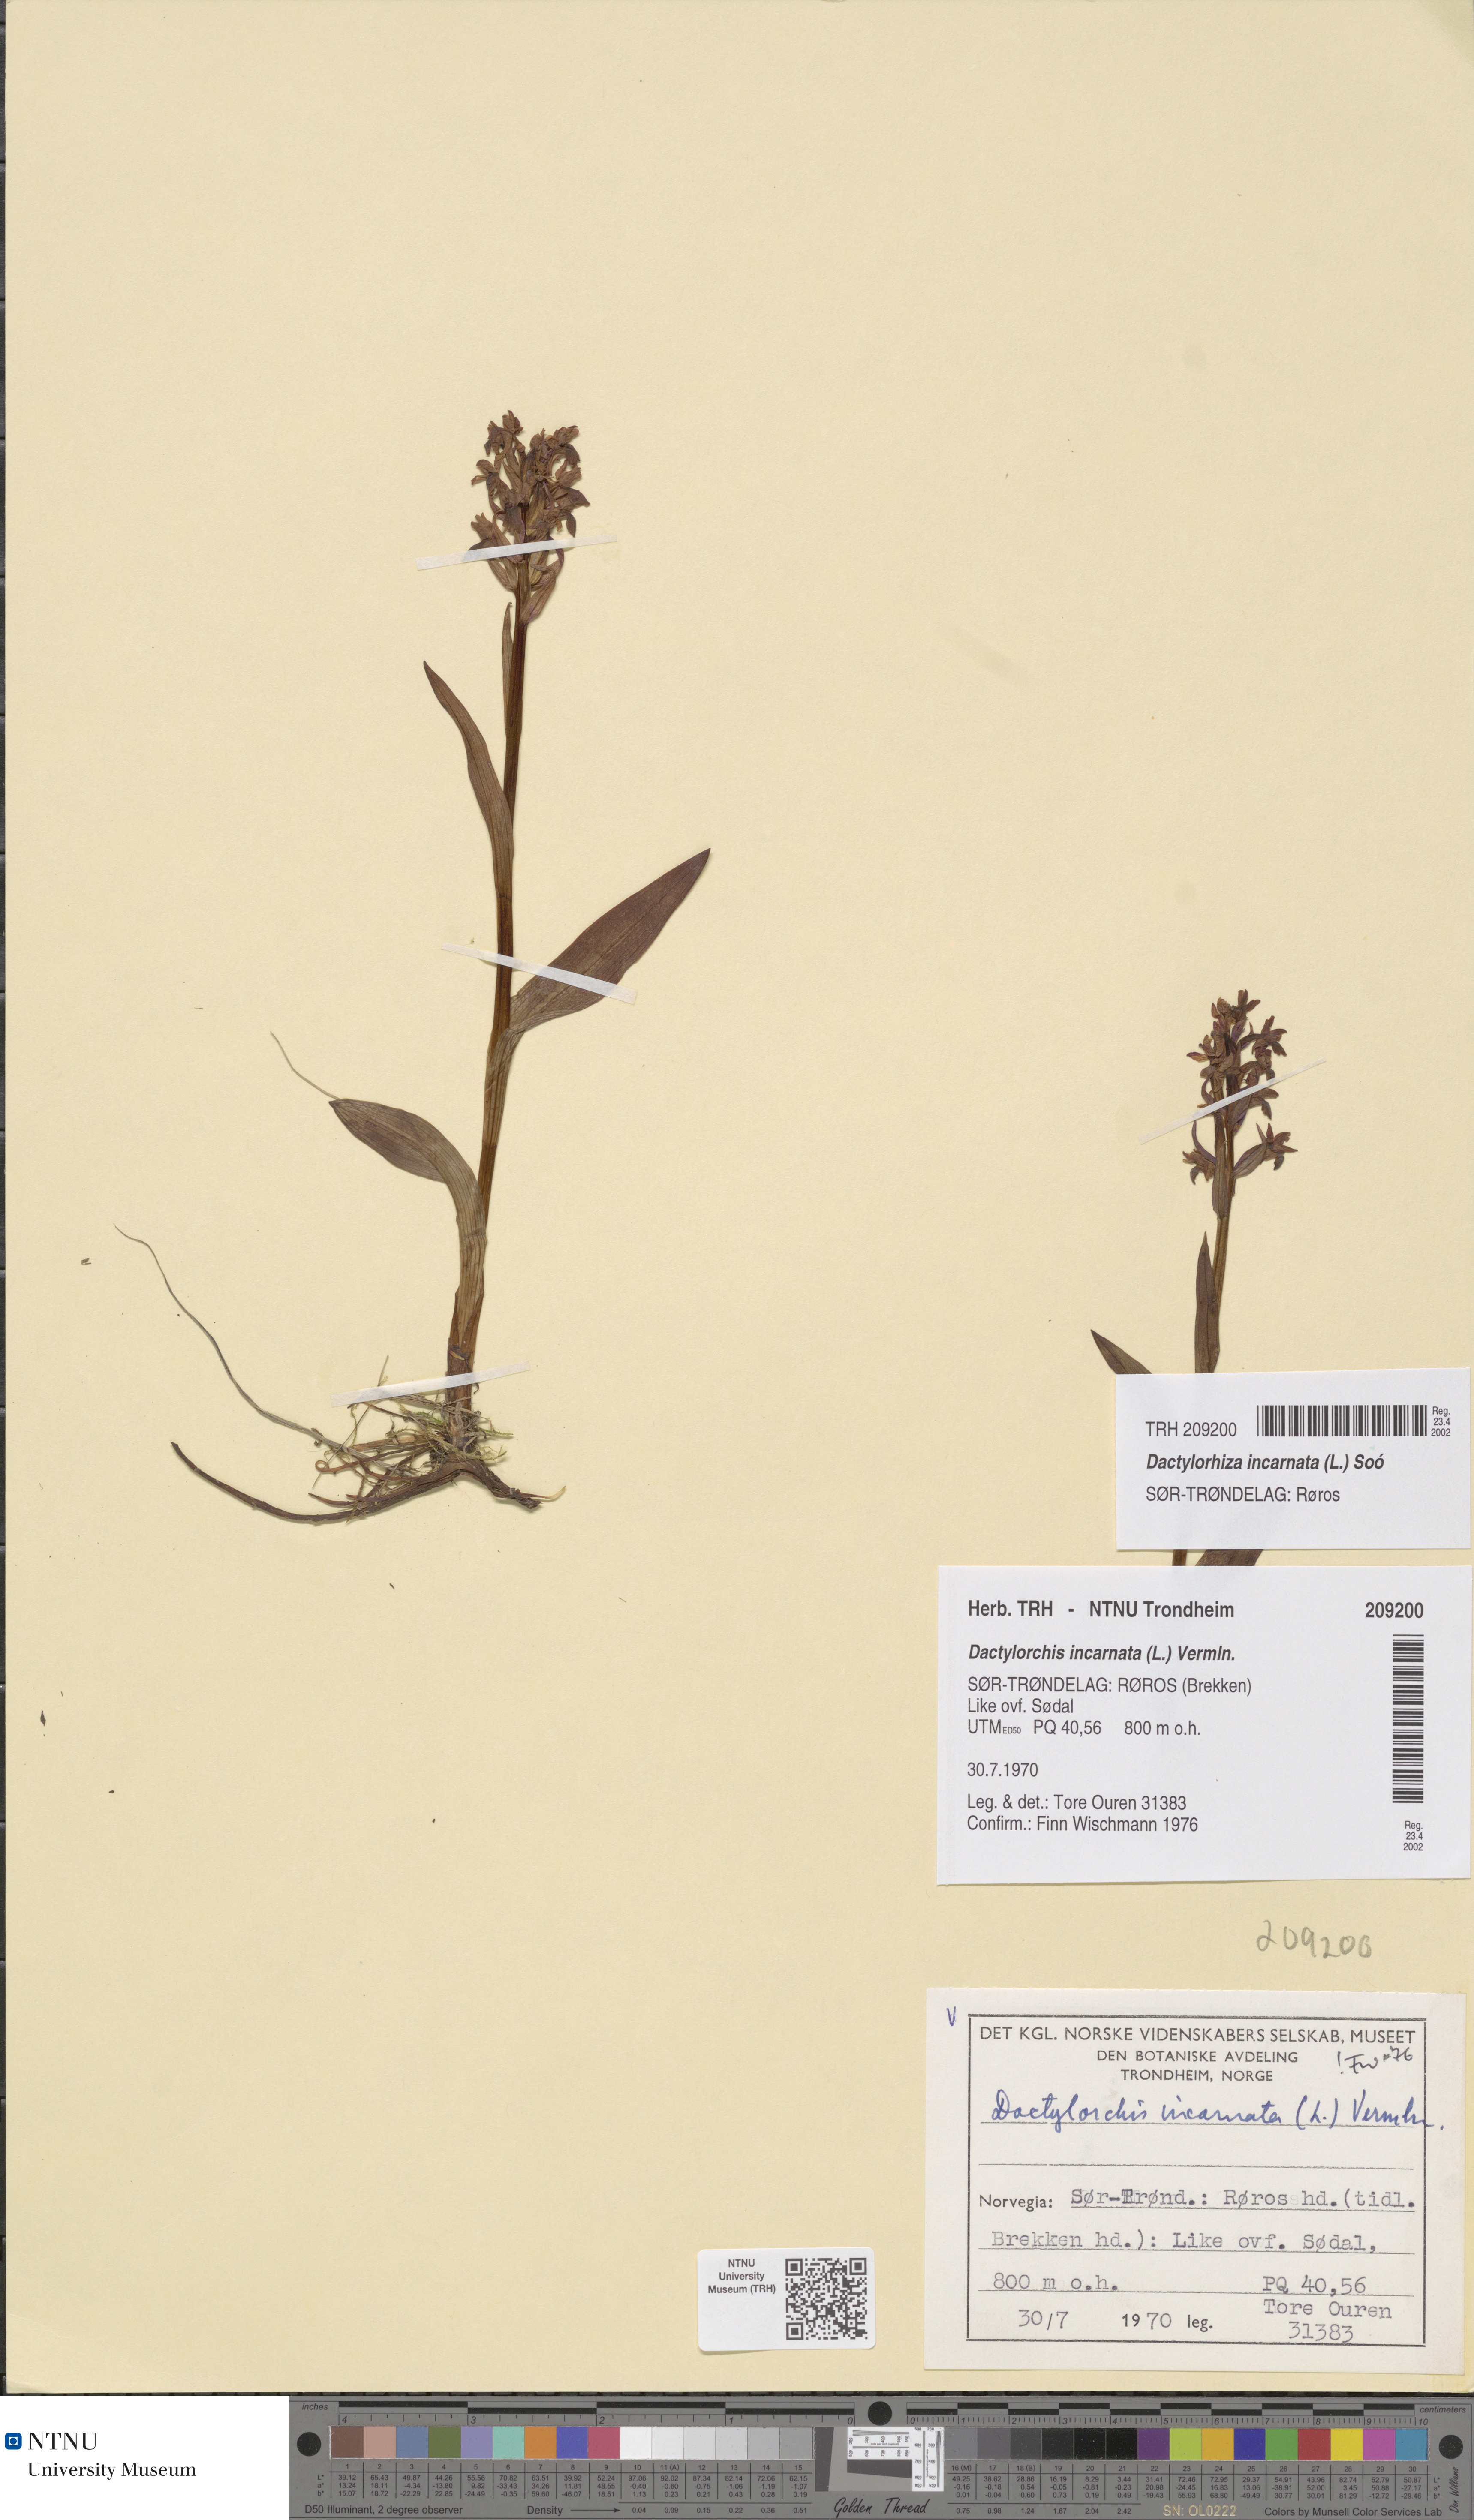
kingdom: Plantae
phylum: Tracheophyta
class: Liliopsida
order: Asparagales
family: Orchidaceae
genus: Dactylorhiza
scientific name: Dactylorhiza incarnata
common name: Early marsh-orchid
